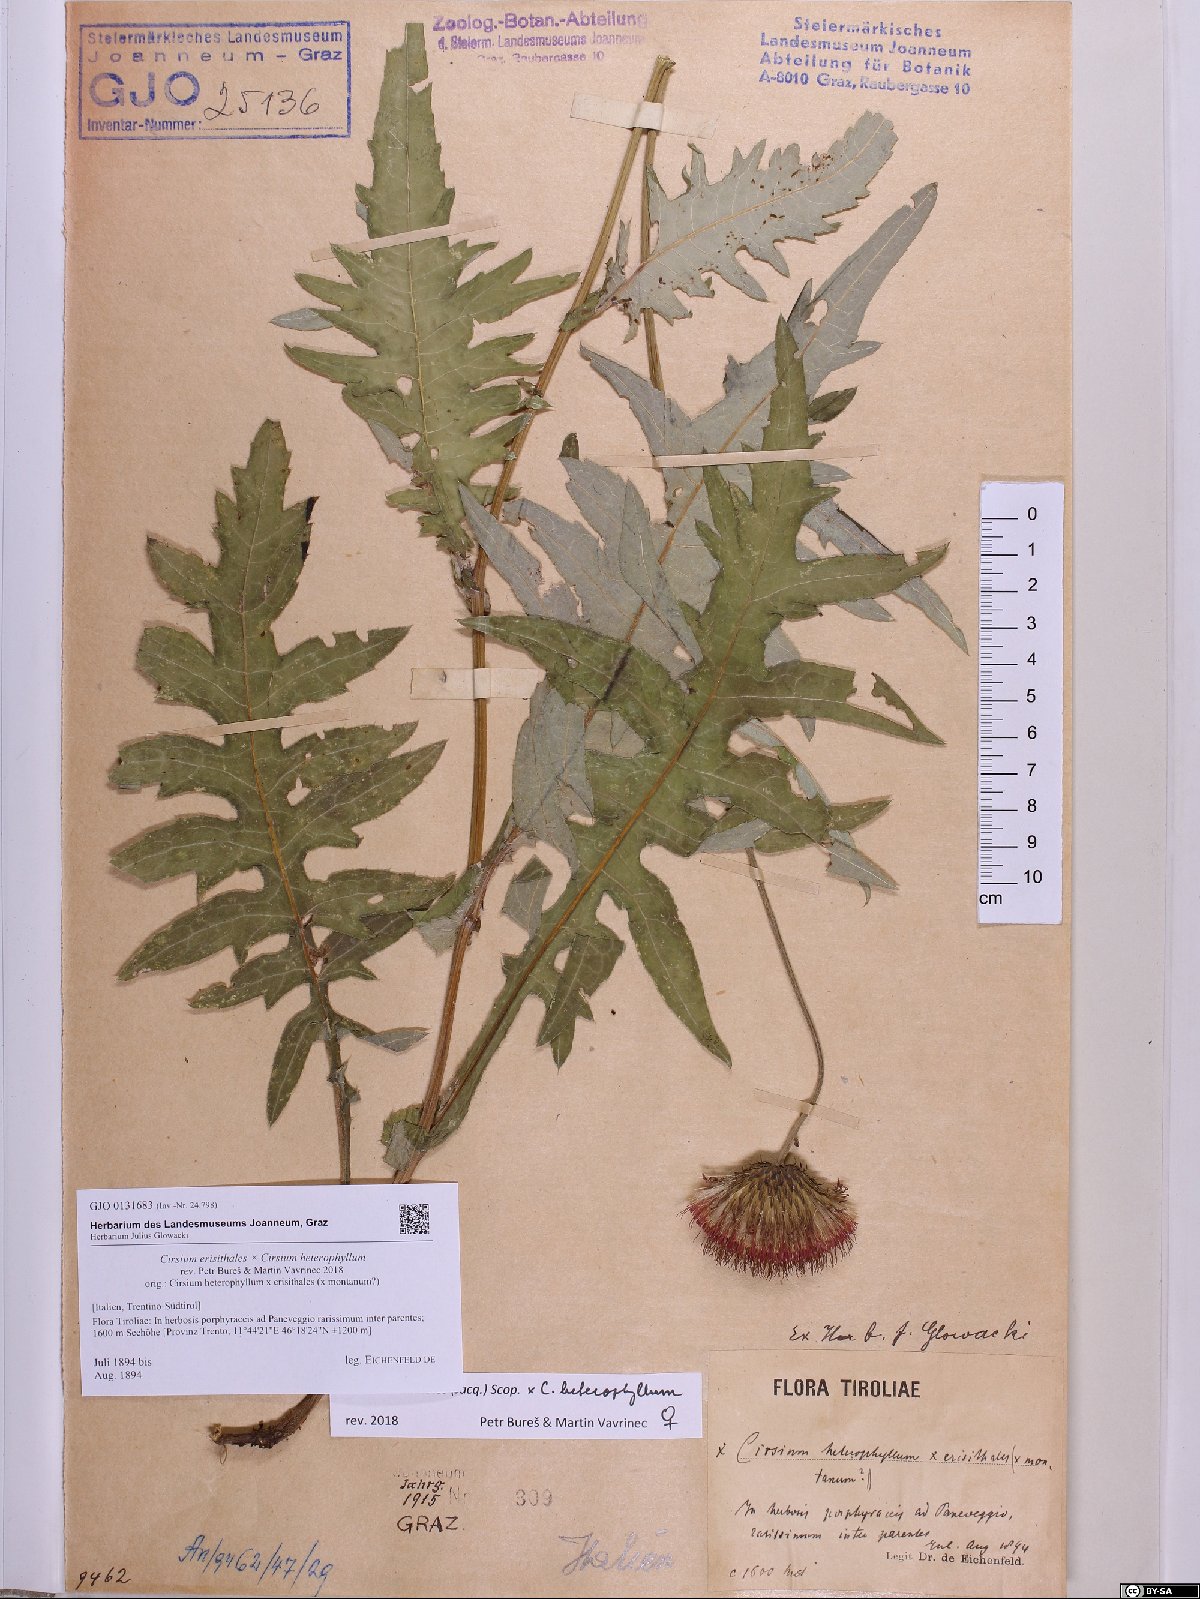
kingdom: Plantae
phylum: Tracheophyta
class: Magnoliopsida
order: Asterales
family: Asteraceae
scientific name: Asteraceae
